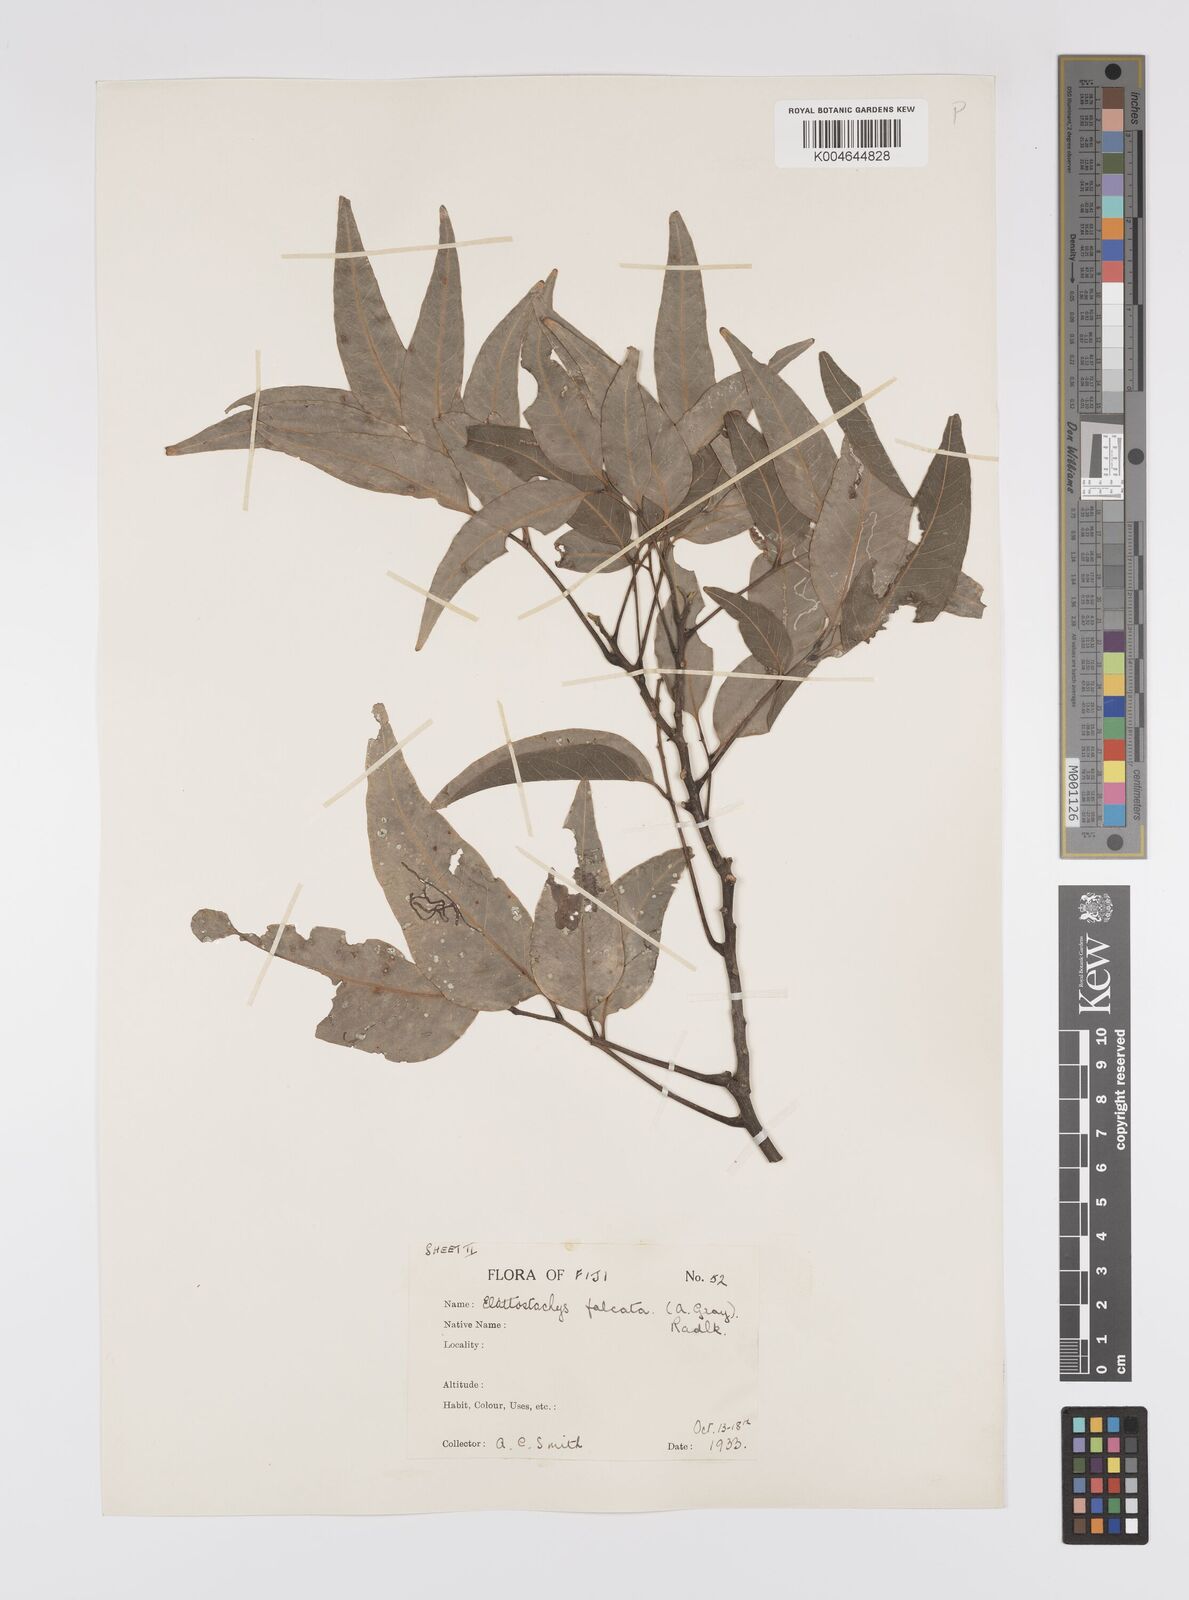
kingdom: Plantae
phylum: Tracheophyta
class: Magnoliopsida
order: Sapindales
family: Sapindaceae
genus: Elattostachys
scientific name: Elattostachys apetala
